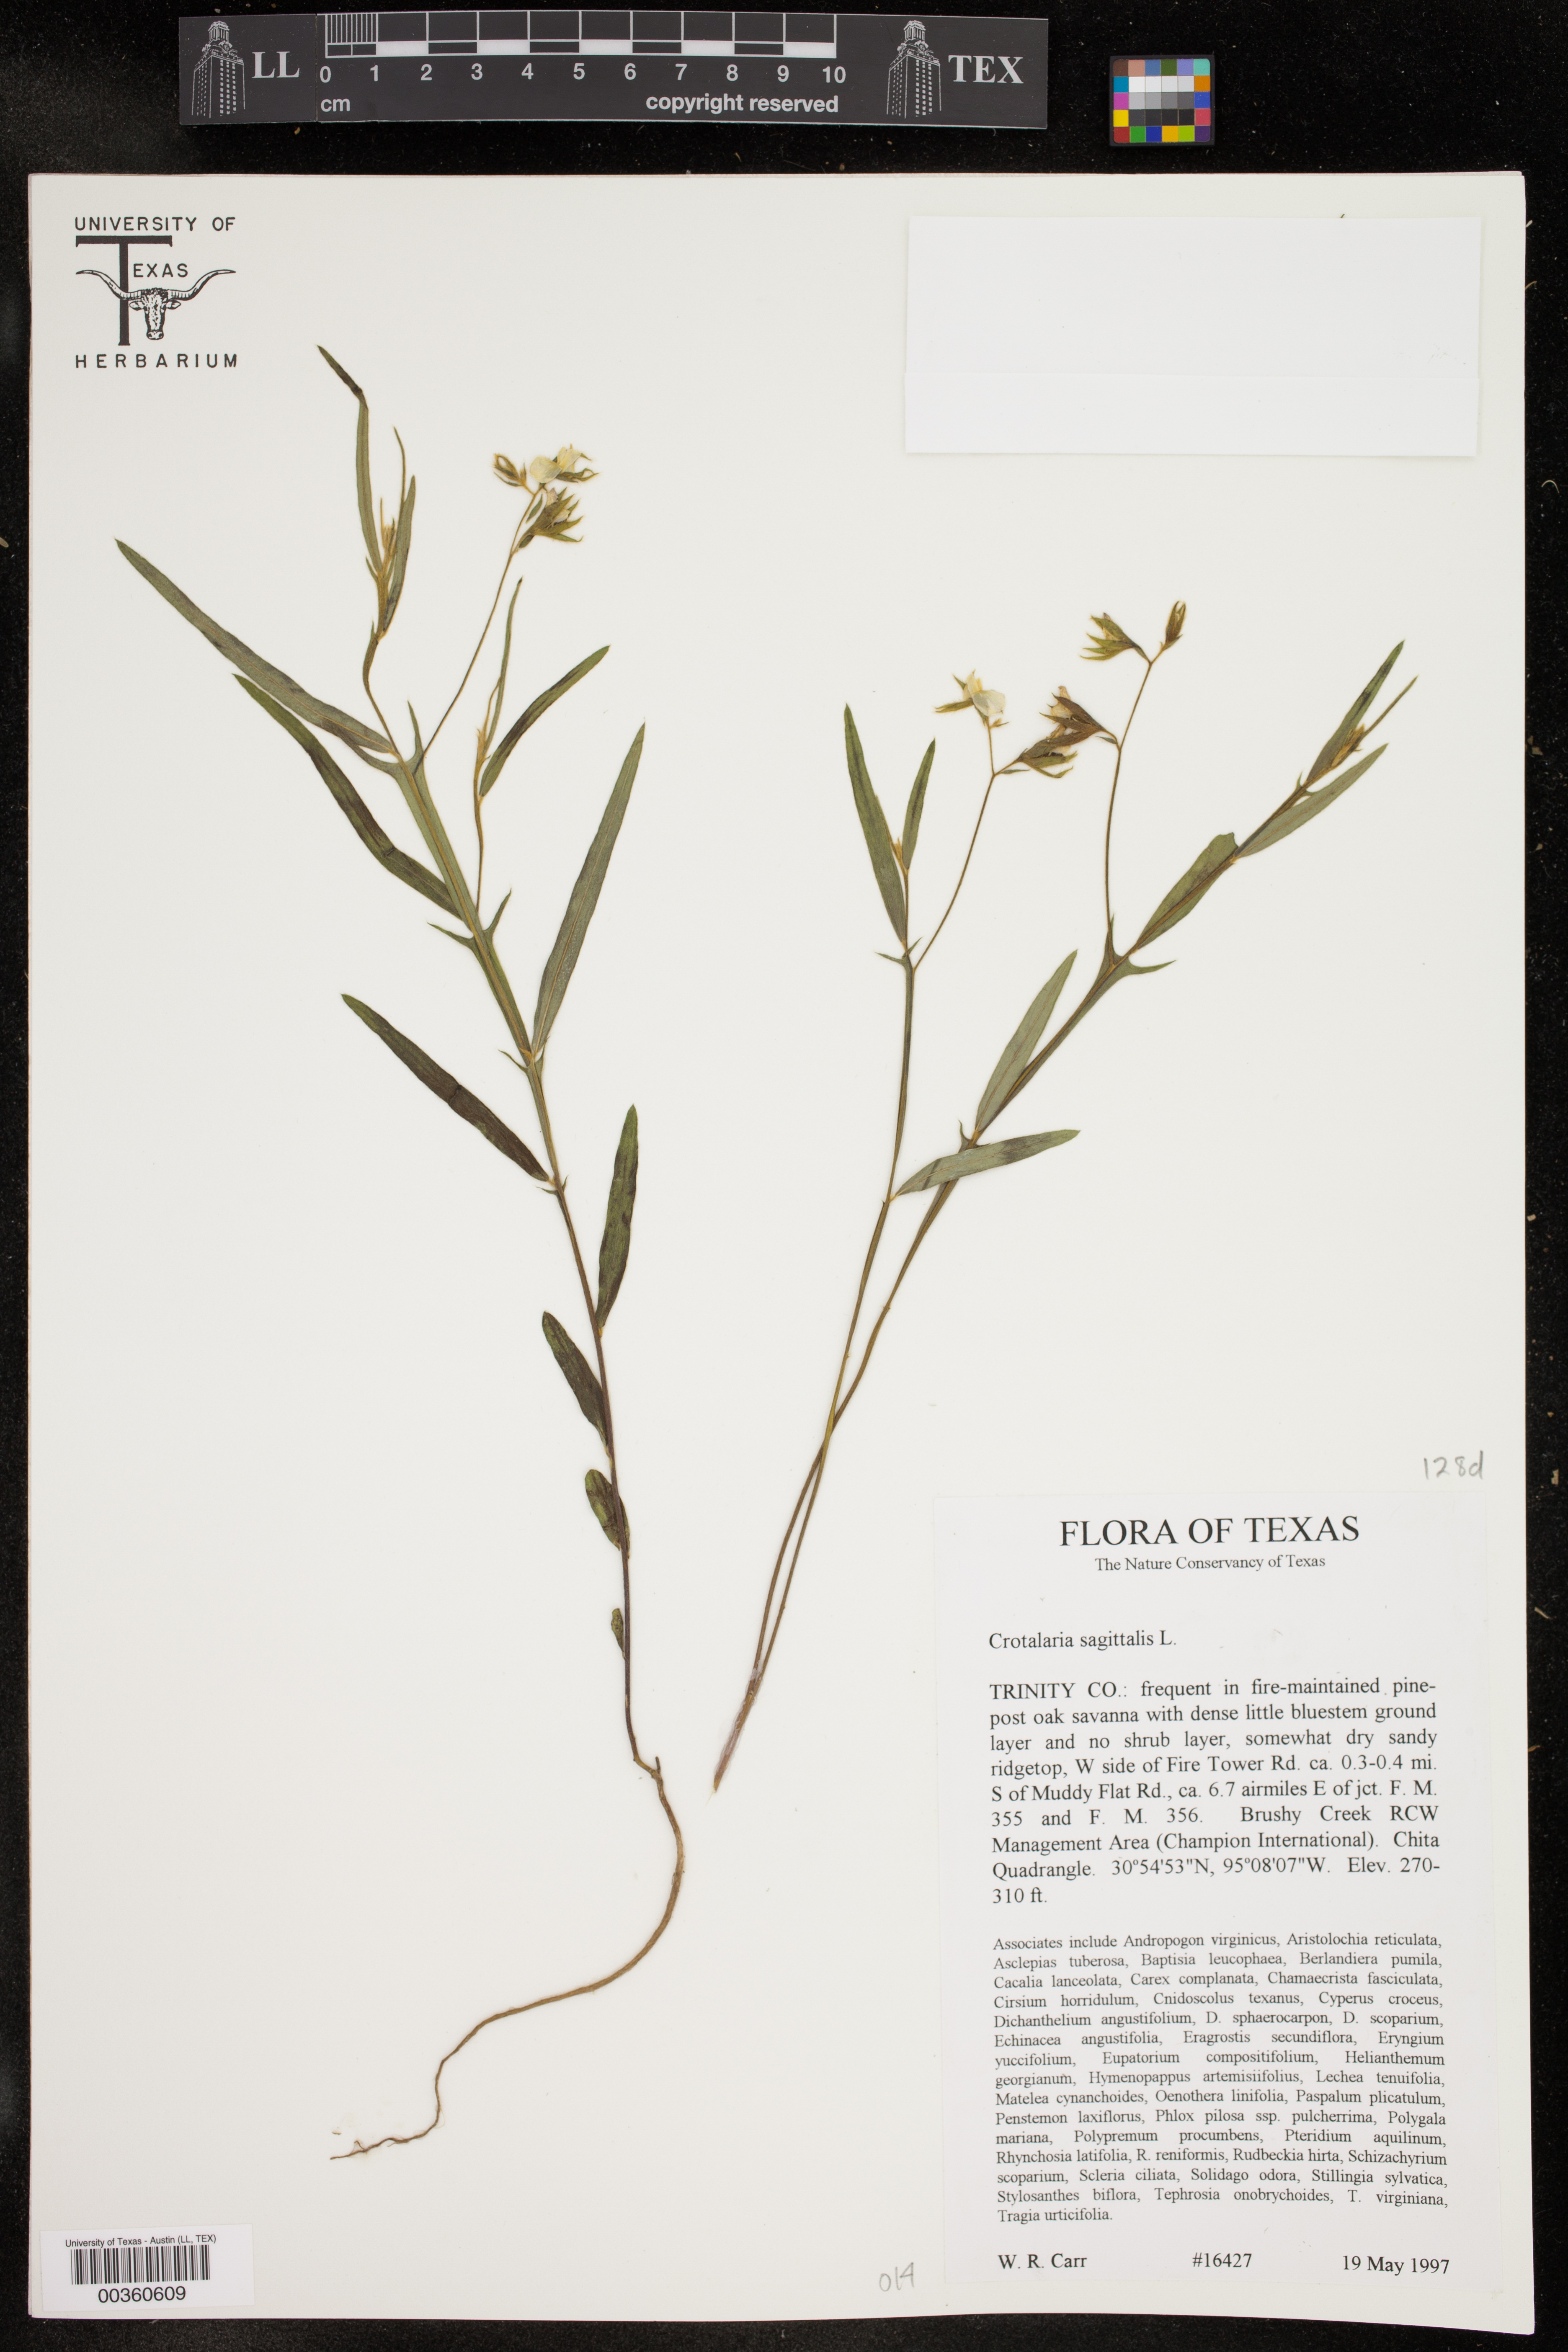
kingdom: Plantae
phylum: Tracheophyta
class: Magnoliopsida
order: Fabales
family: Fabaceae
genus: Crotalaria
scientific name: Crotalaria sagittalis
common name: Arrowhead rattlebox
